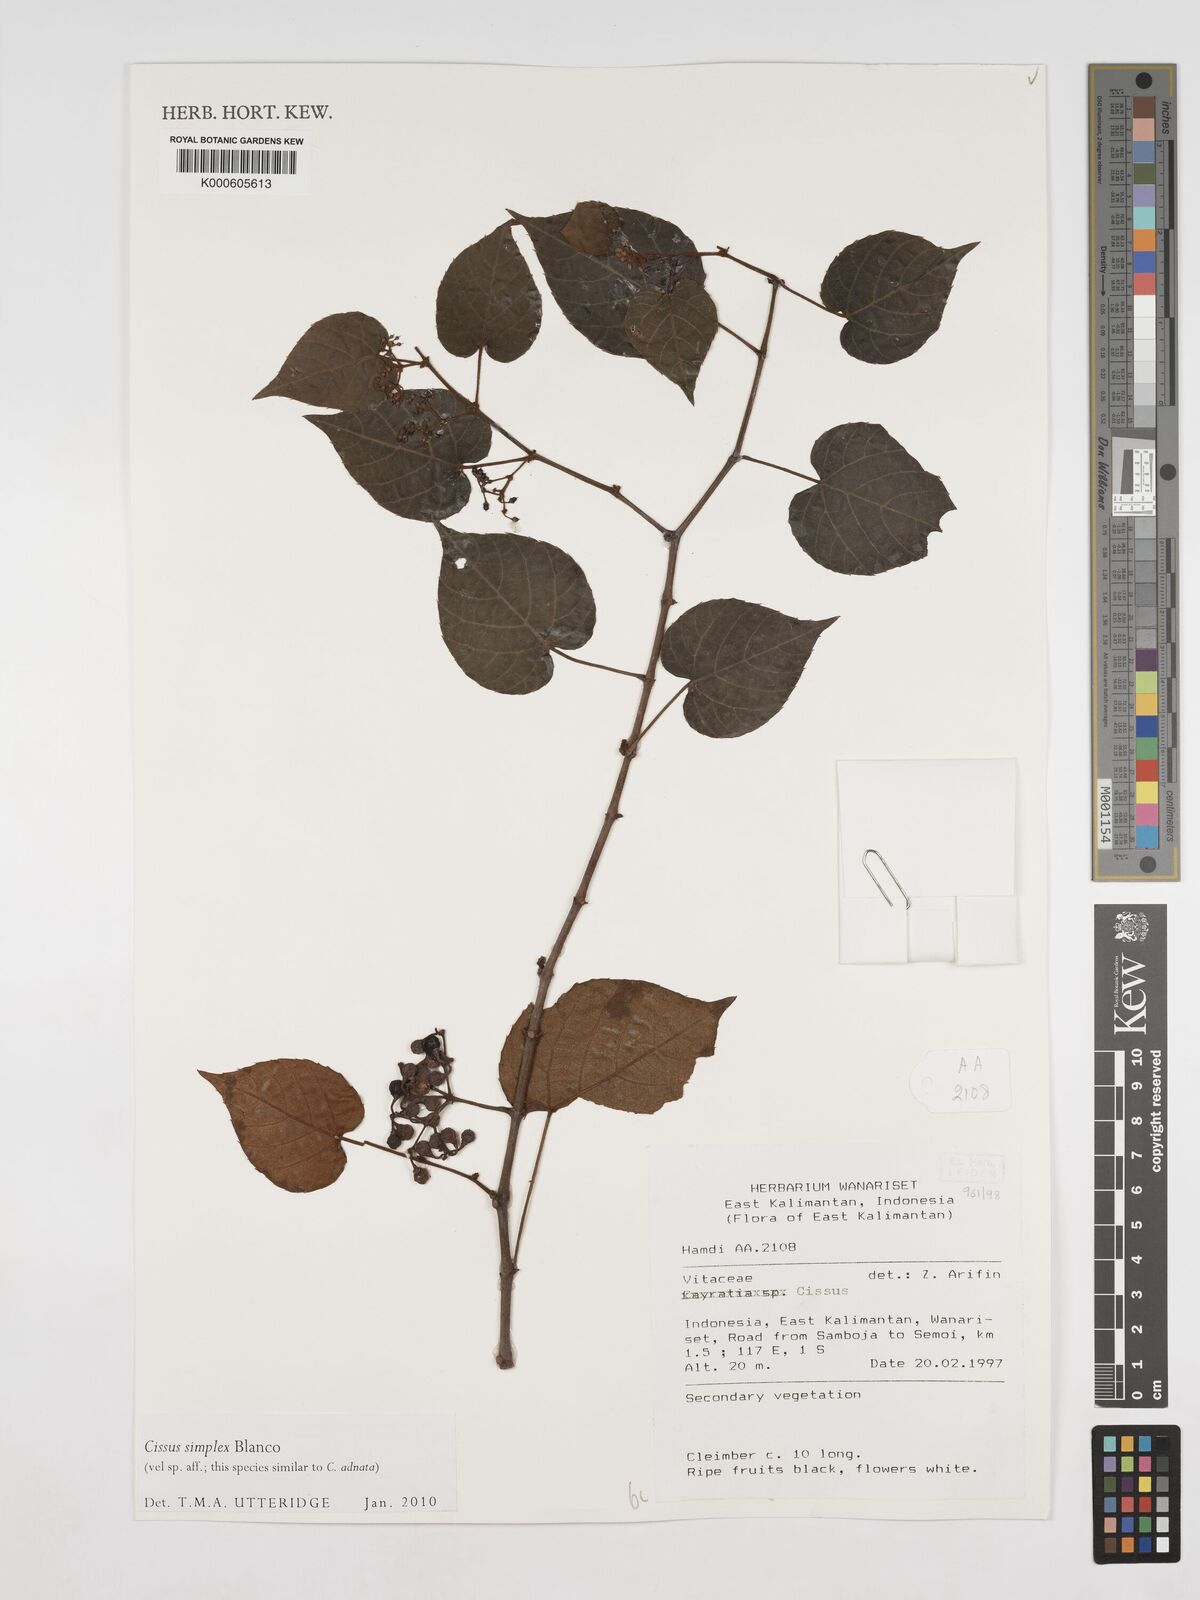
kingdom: Plantae
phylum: Tracheophyta
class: Magnoliopsida
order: Vitales
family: Vitaceae
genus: Cissus
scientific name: Cissus aristata
